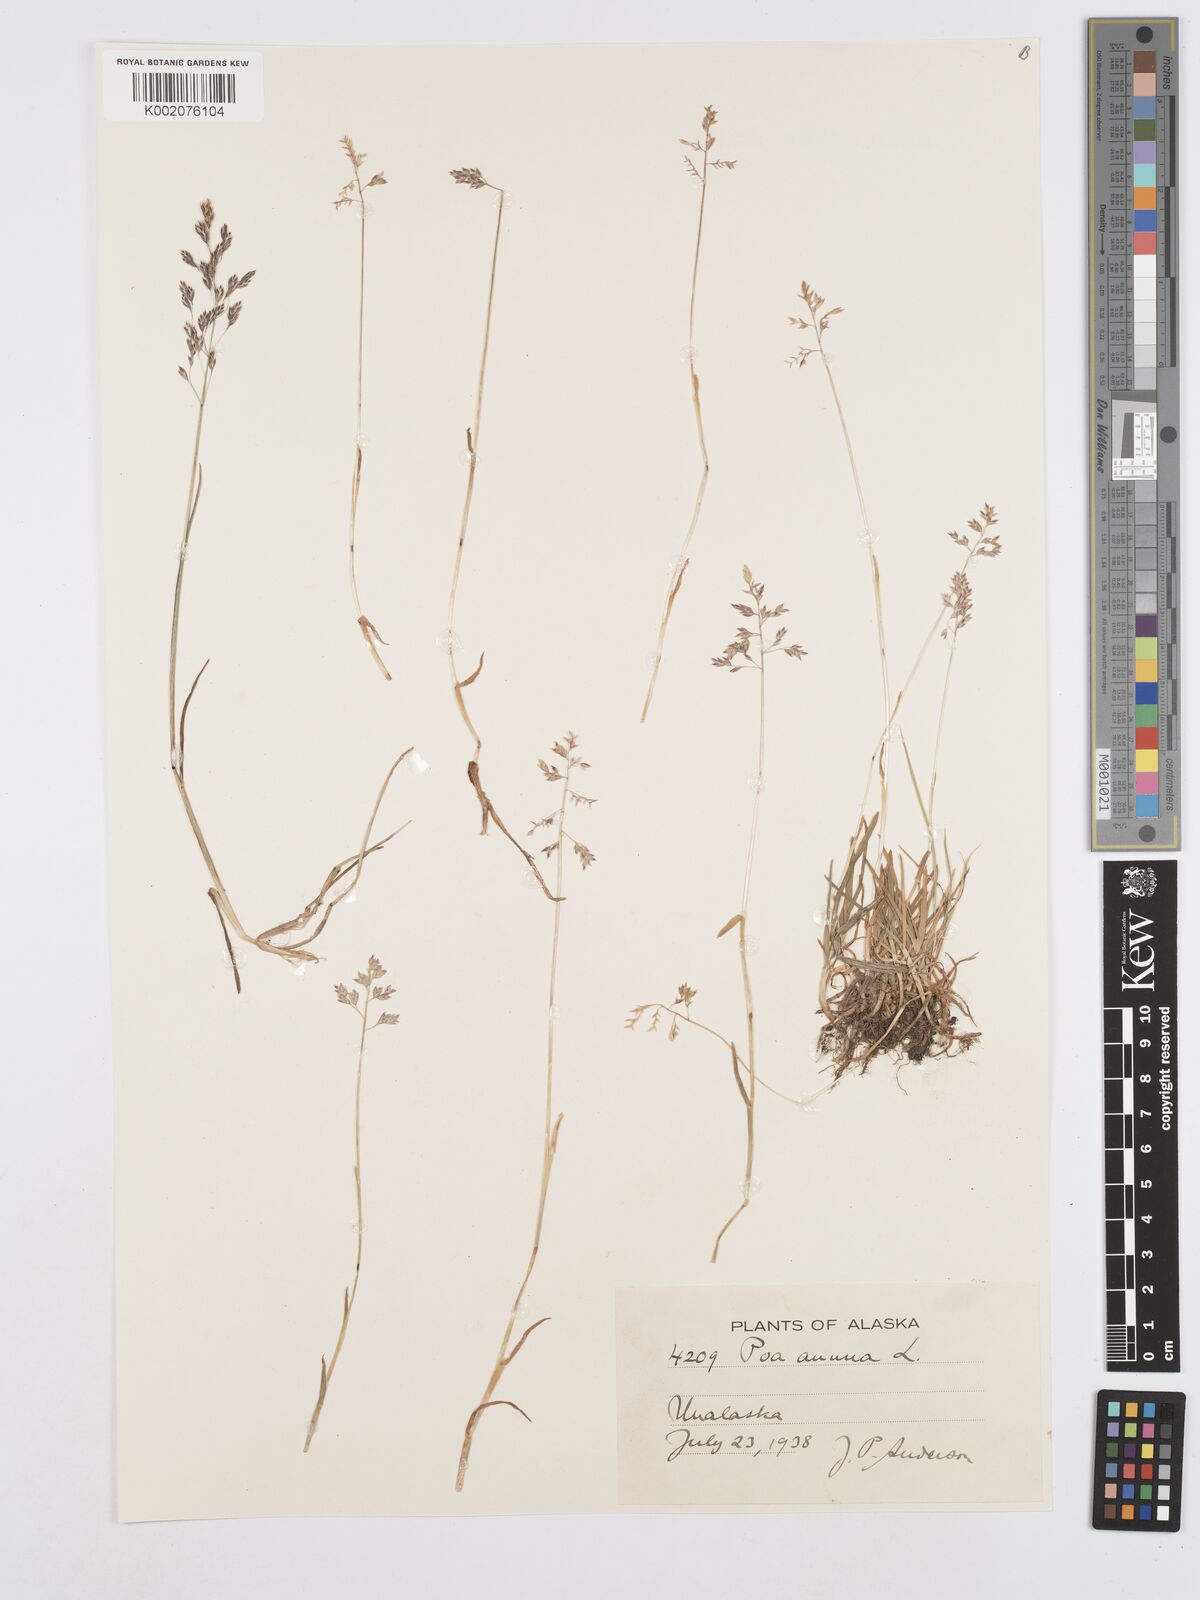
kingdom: Plantae
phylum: Tracheophyta
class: Liliopsida
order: Poales
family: Poaceae
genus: Poa
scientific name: Poa annua
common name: Annual bluegrass
